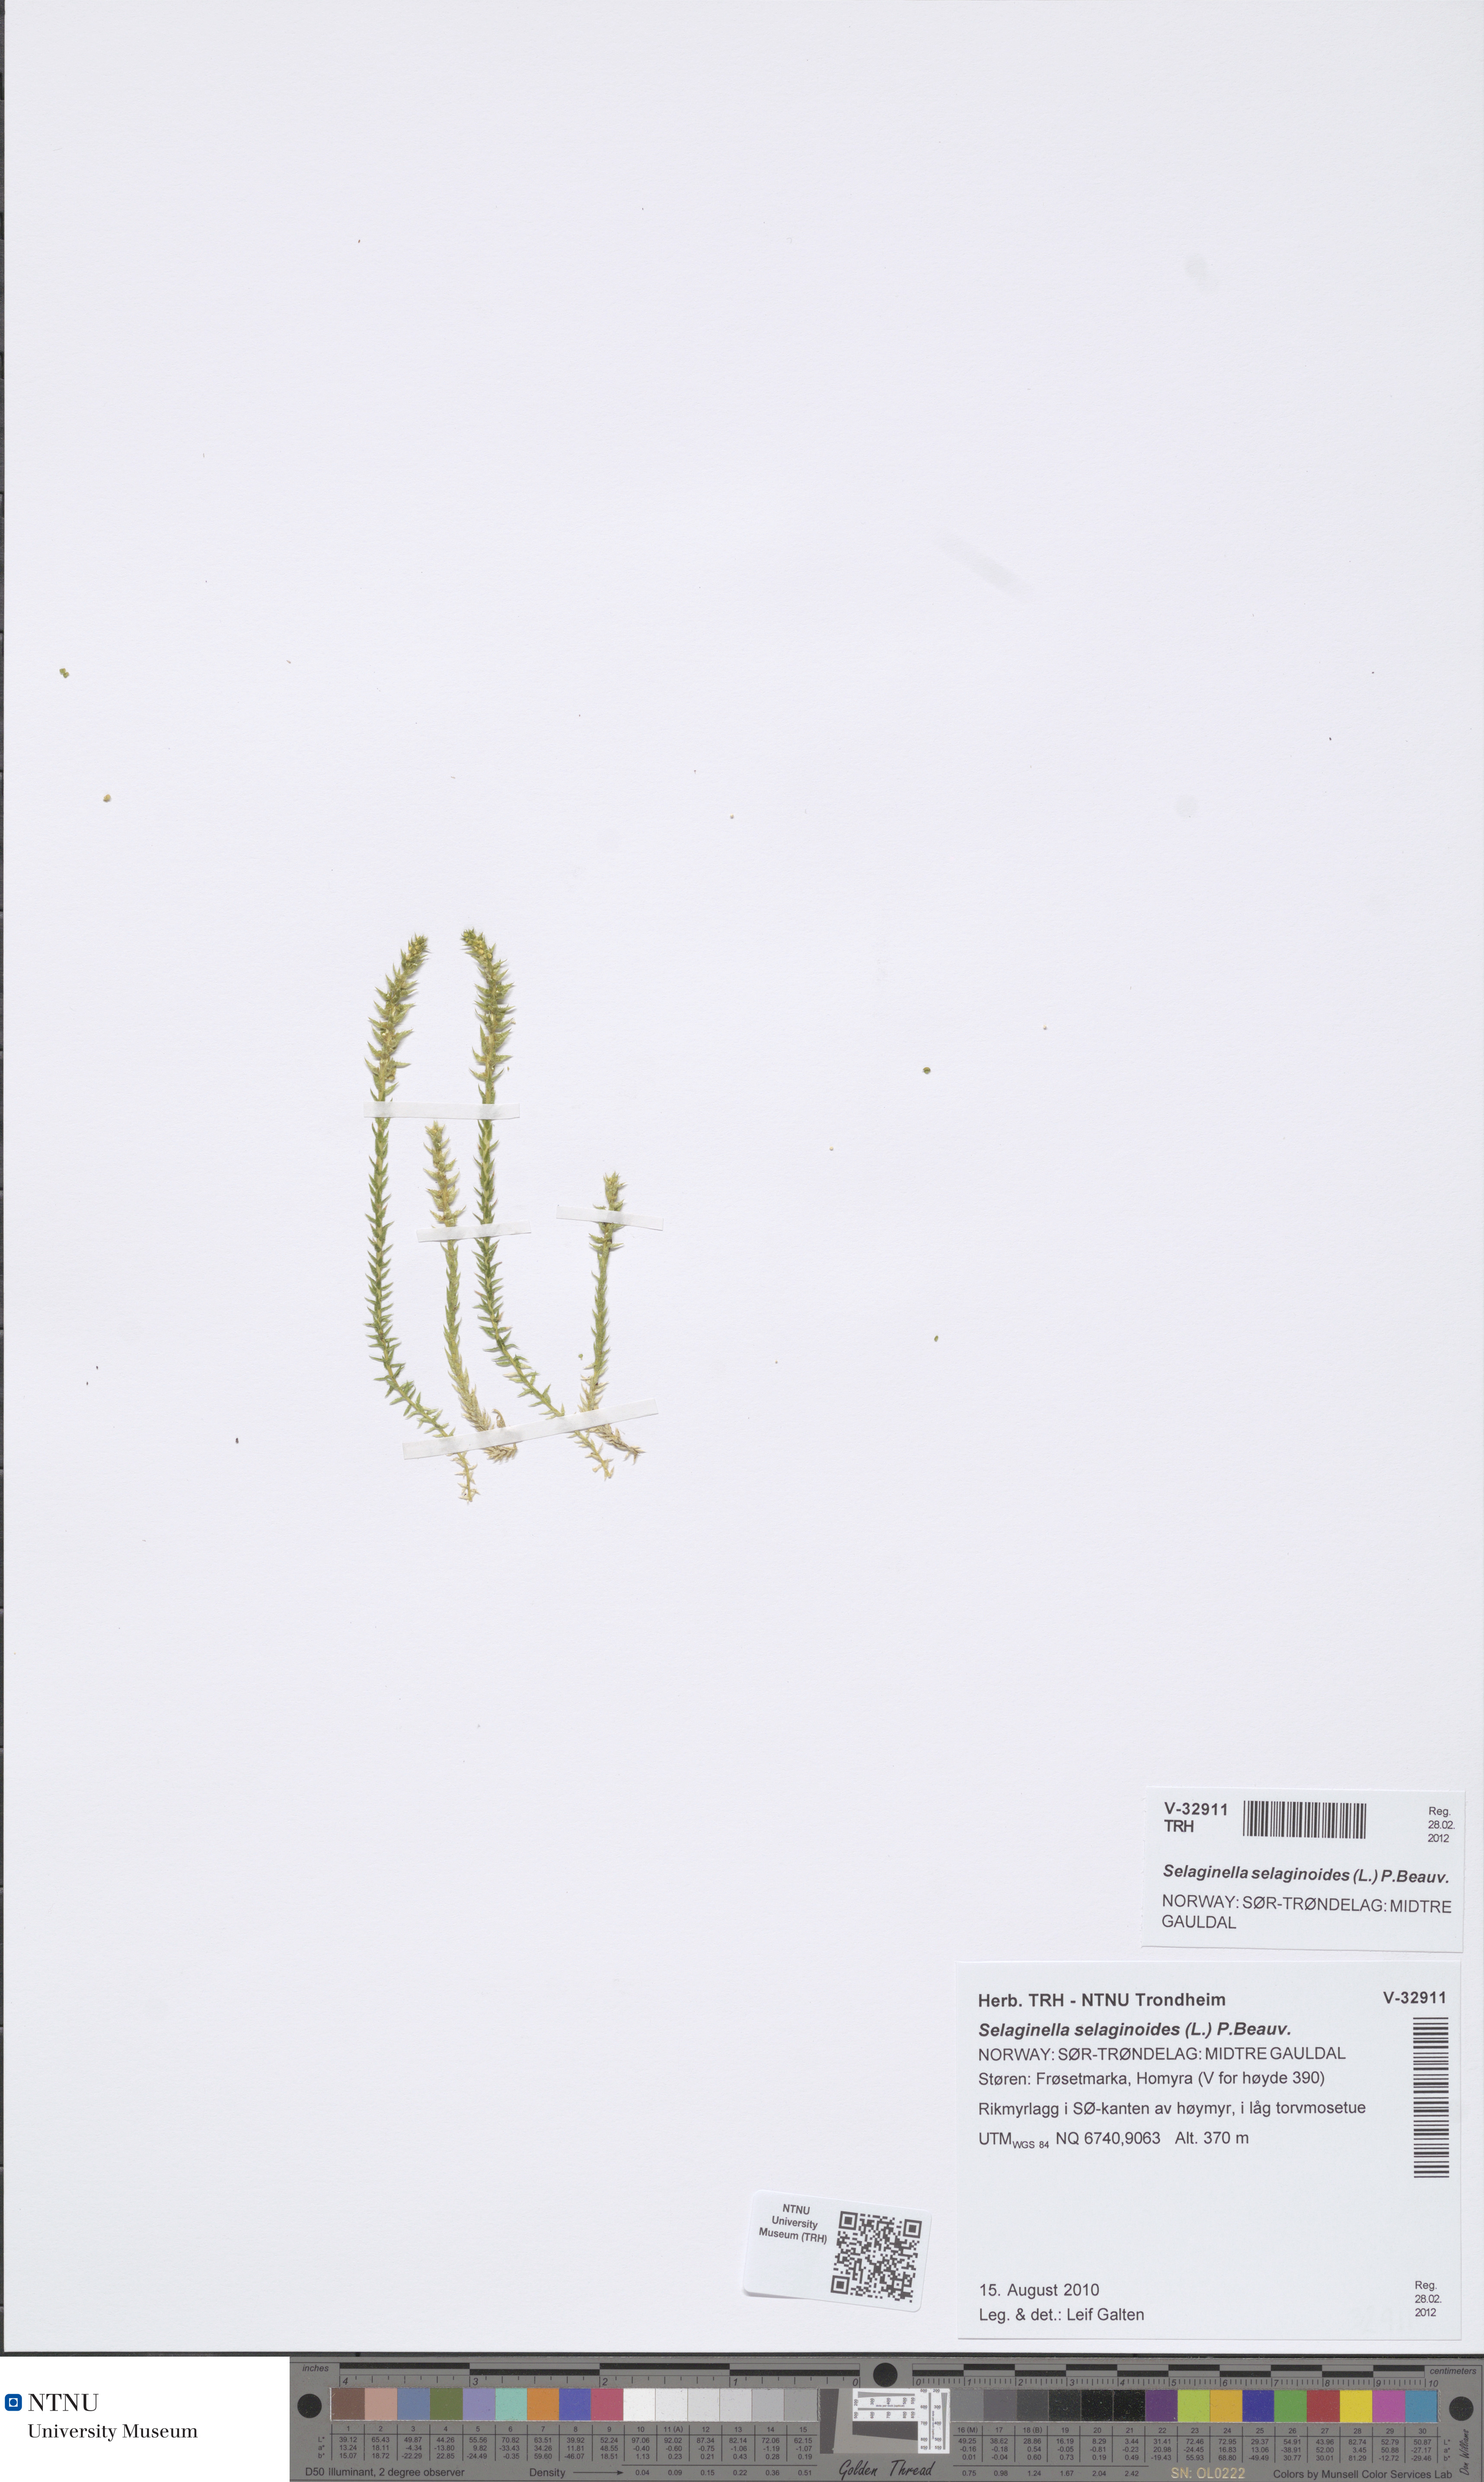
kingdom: Plantae
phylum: Tracheophyta
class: Lycopodiopsida
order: Selaginellales
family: Selaginellaceae
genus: Selaginella
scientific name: Selaginella selaginoides
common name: Prickly mountain-moss
